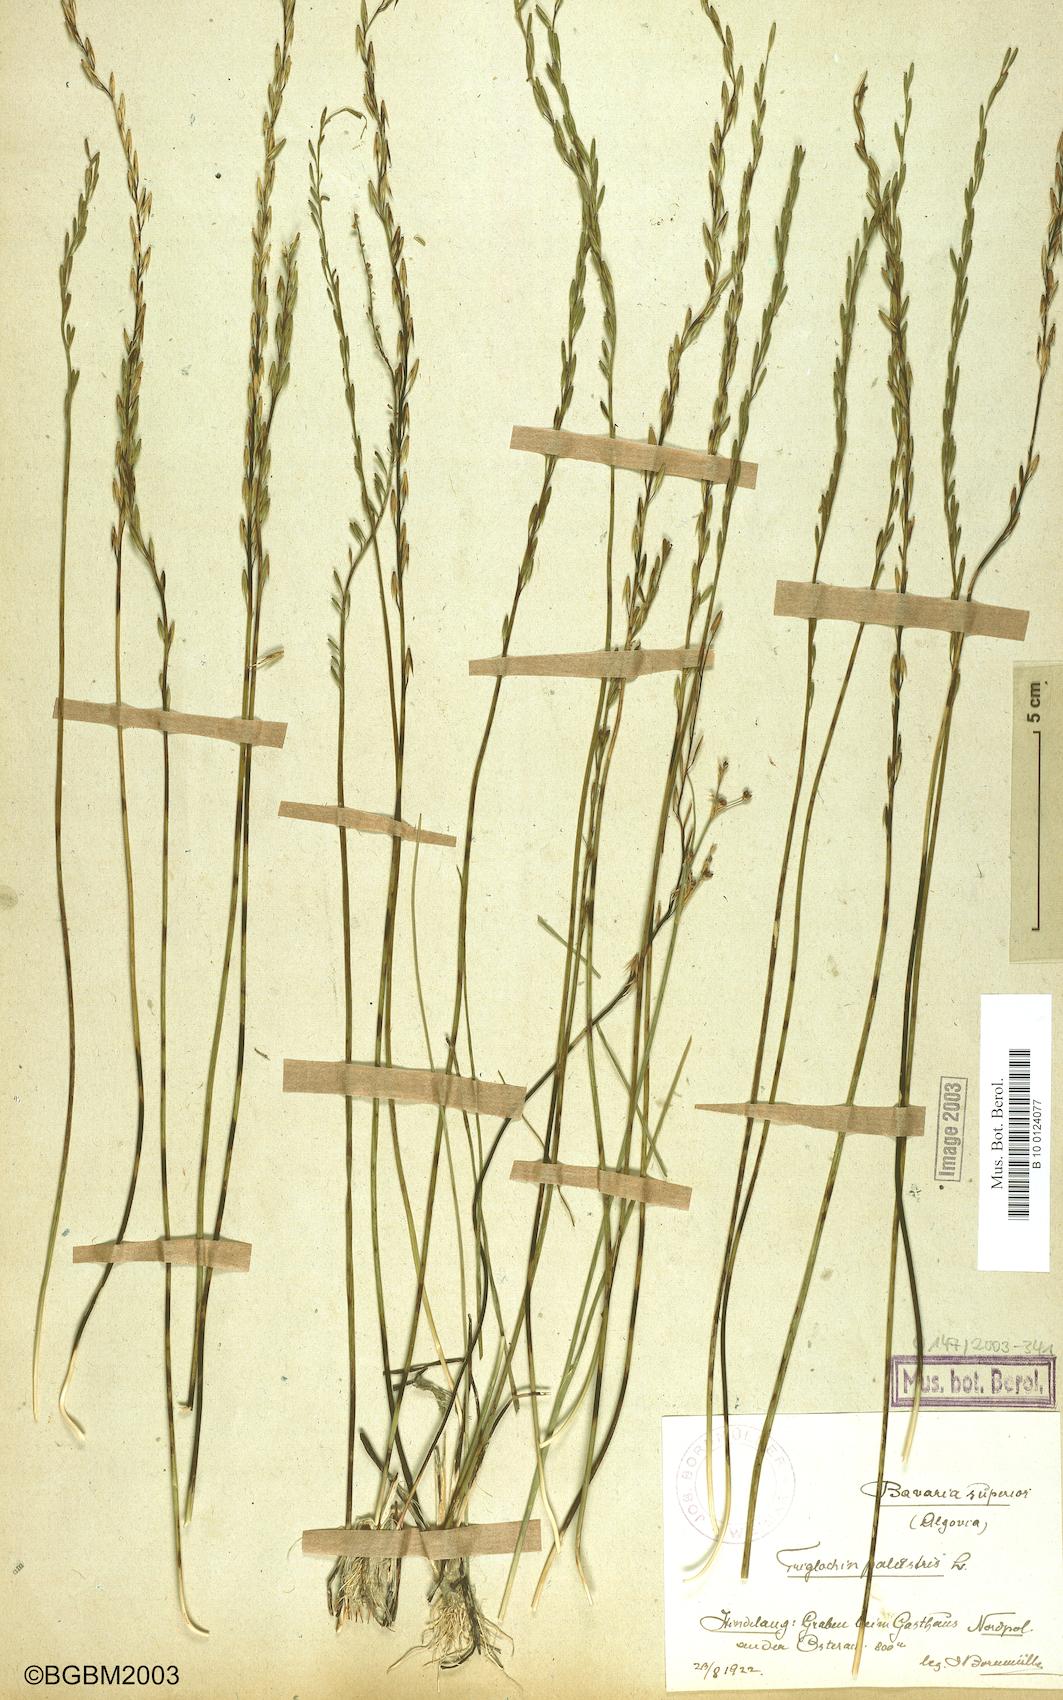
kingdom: Plantae
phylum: Tracheophyta
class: Liliopsida
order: Alismatales
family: Juncaginaceae
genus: Triglochin
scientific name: Triglochin palustris
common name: Marsh arrowgrass
